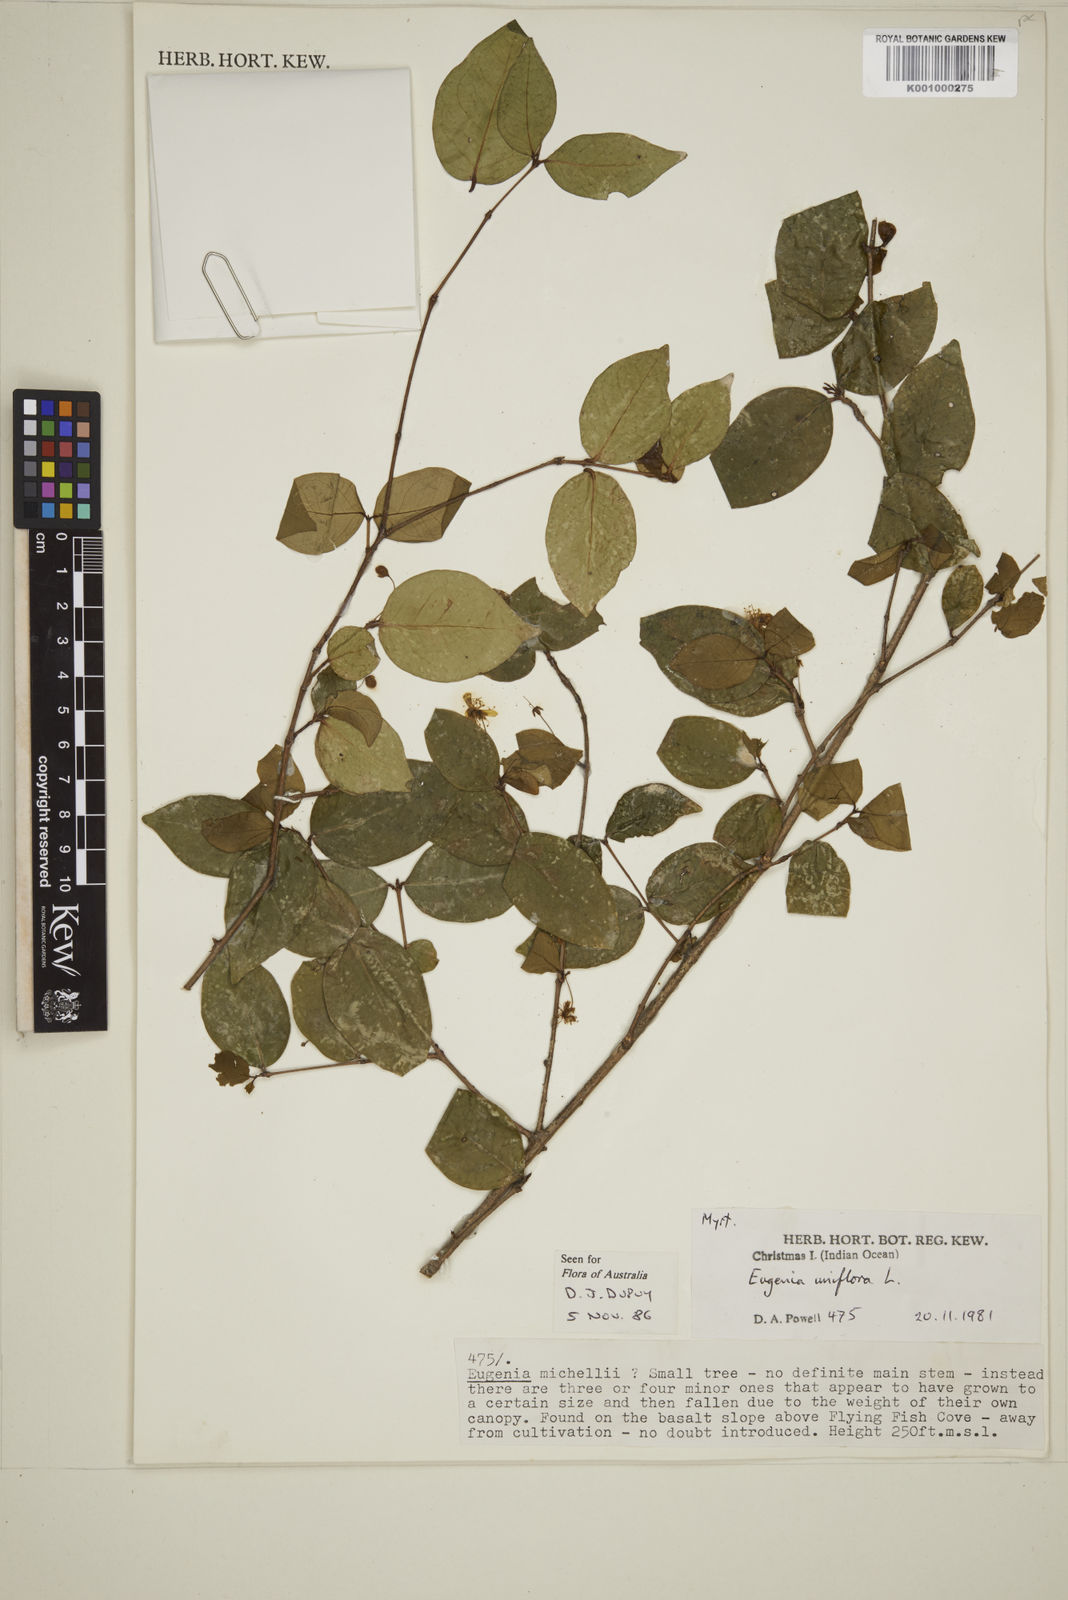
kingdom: Plantae
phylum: Tracheophyta
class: Magnoliopsida
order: Myrtales
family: Myrtaceae
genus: Eugenia
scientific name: Eugenia uniflora
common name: Surinam cherry
